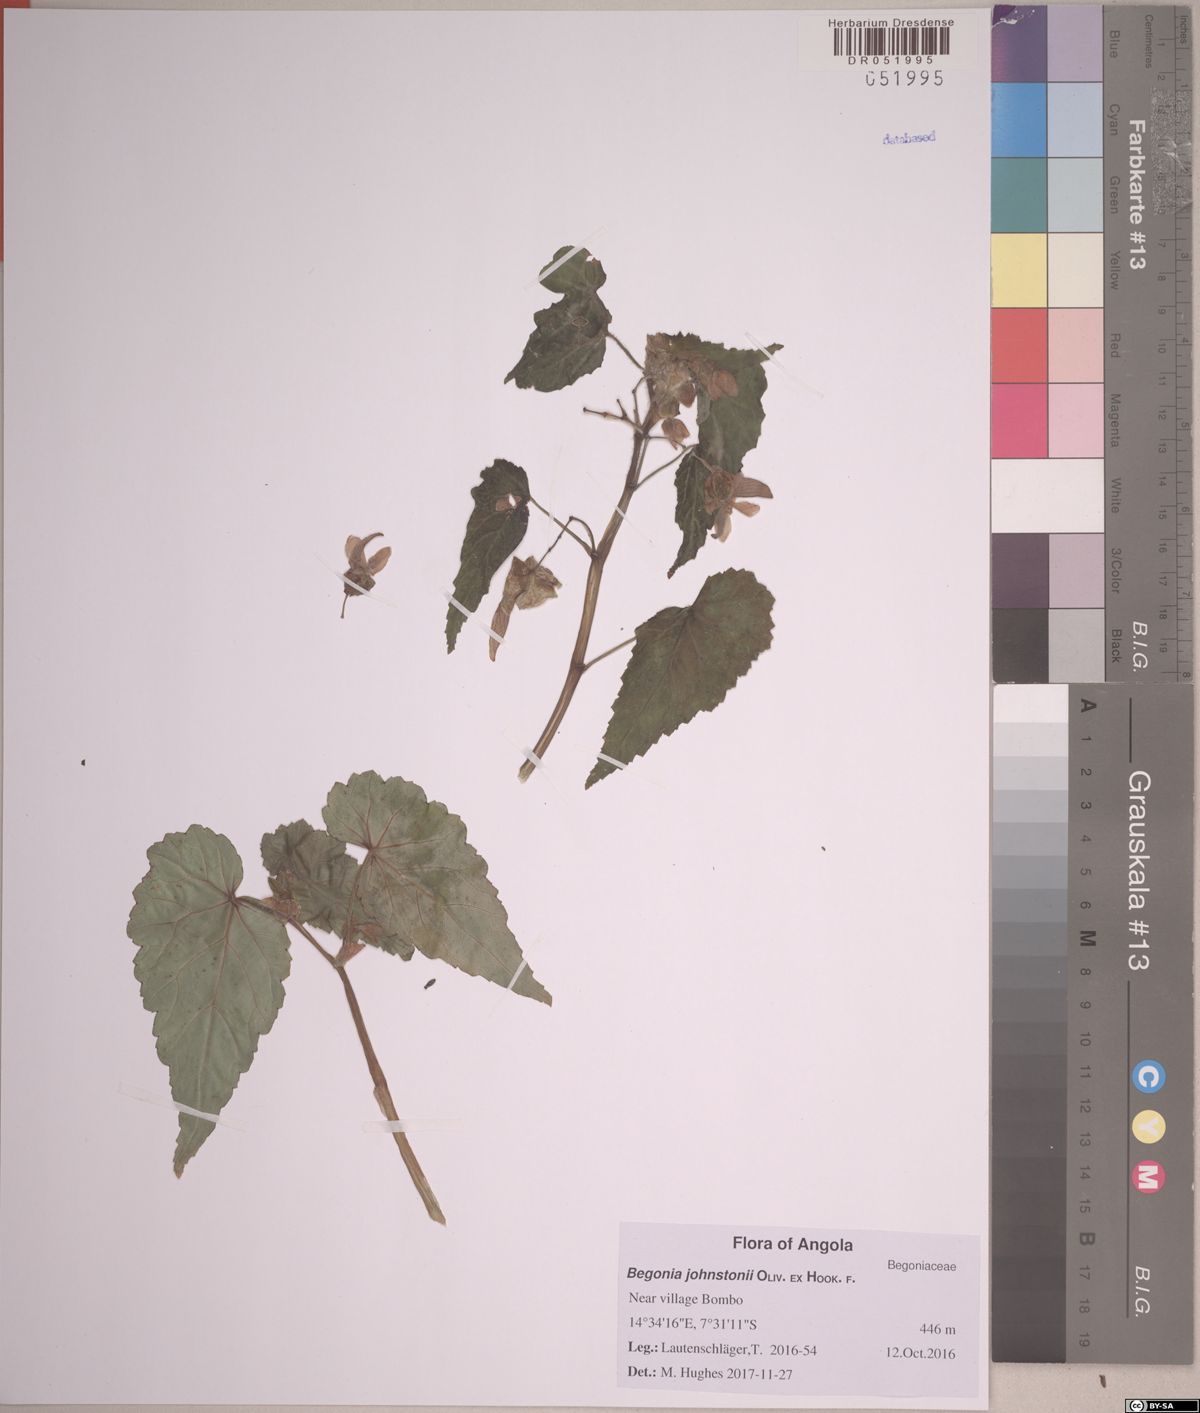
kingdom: Plantae
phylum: Tracheophyta
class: Magnoliopsida
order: Cucurbitales
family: Begoniaceae
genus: Begonia
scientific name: Begonia johnstoni
